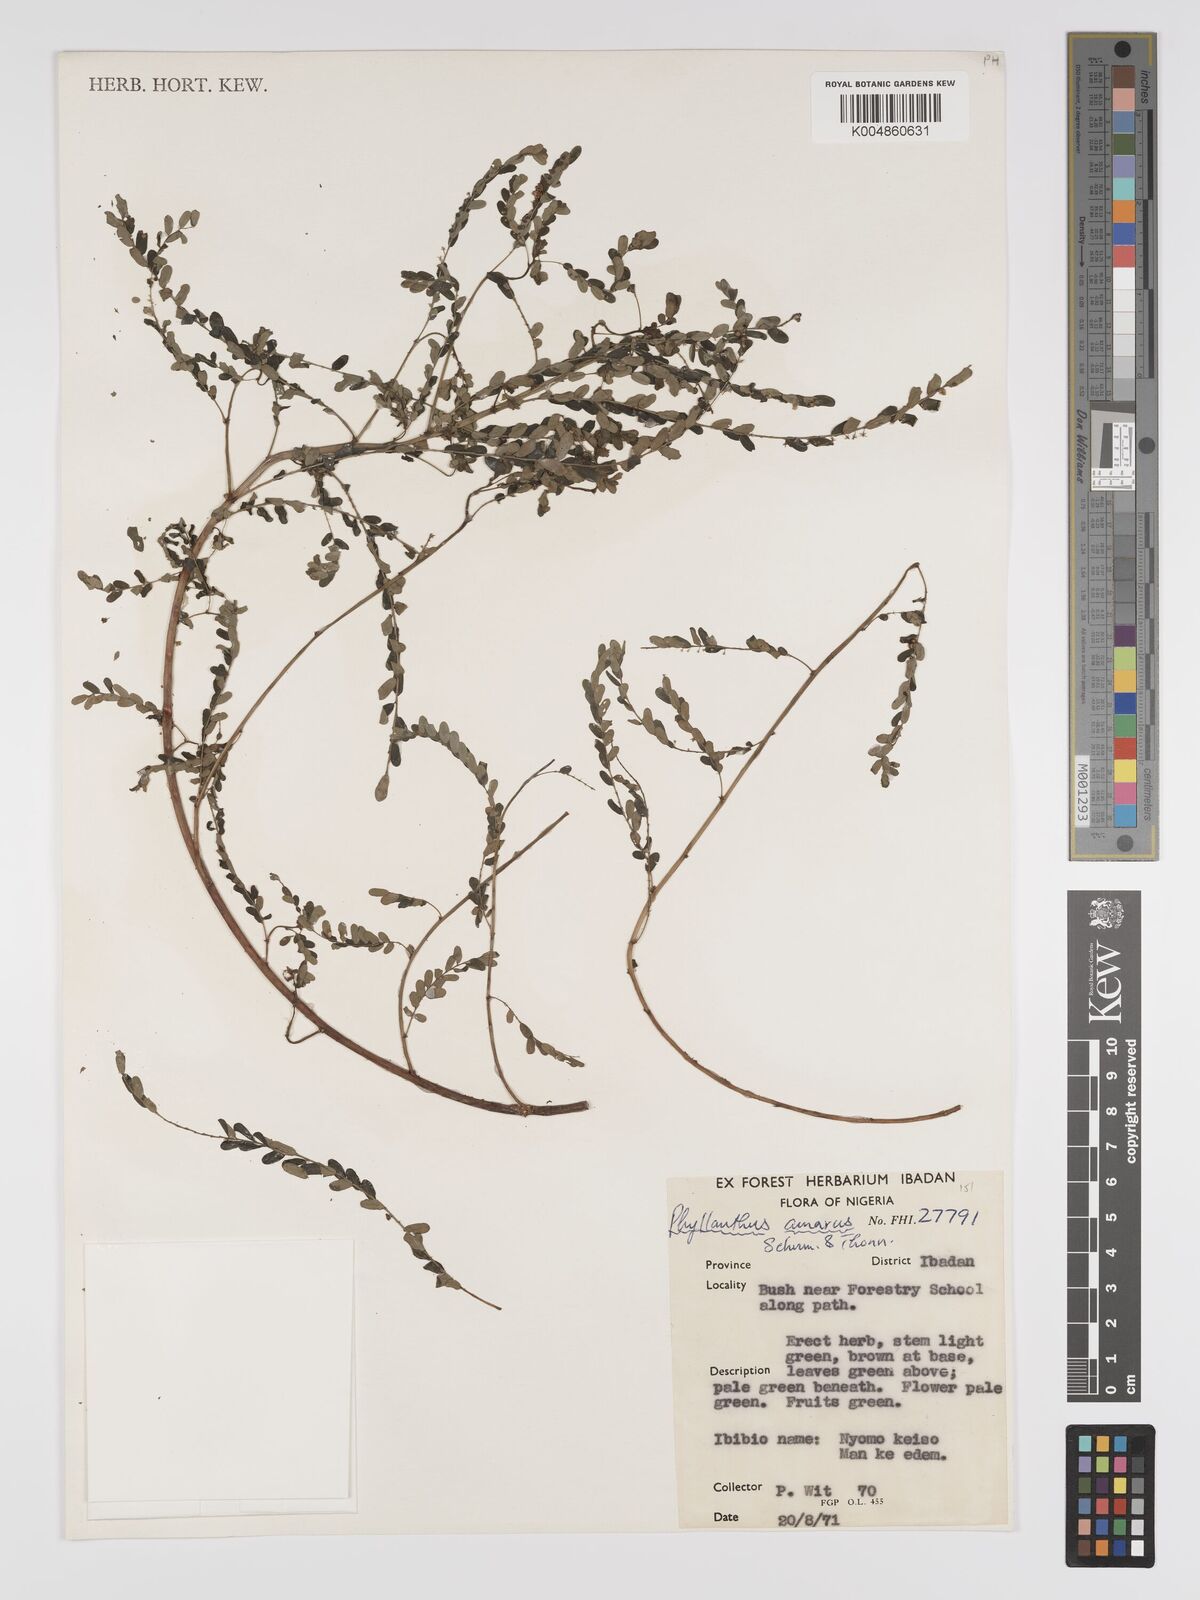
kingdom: Plantae
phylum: Tracheophyta
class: Magnoliopsida
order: Malpighiales
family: Phyllanthaceae
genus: Phyllanthus
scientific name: Phyllanthus amarus
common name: Carry me seed
